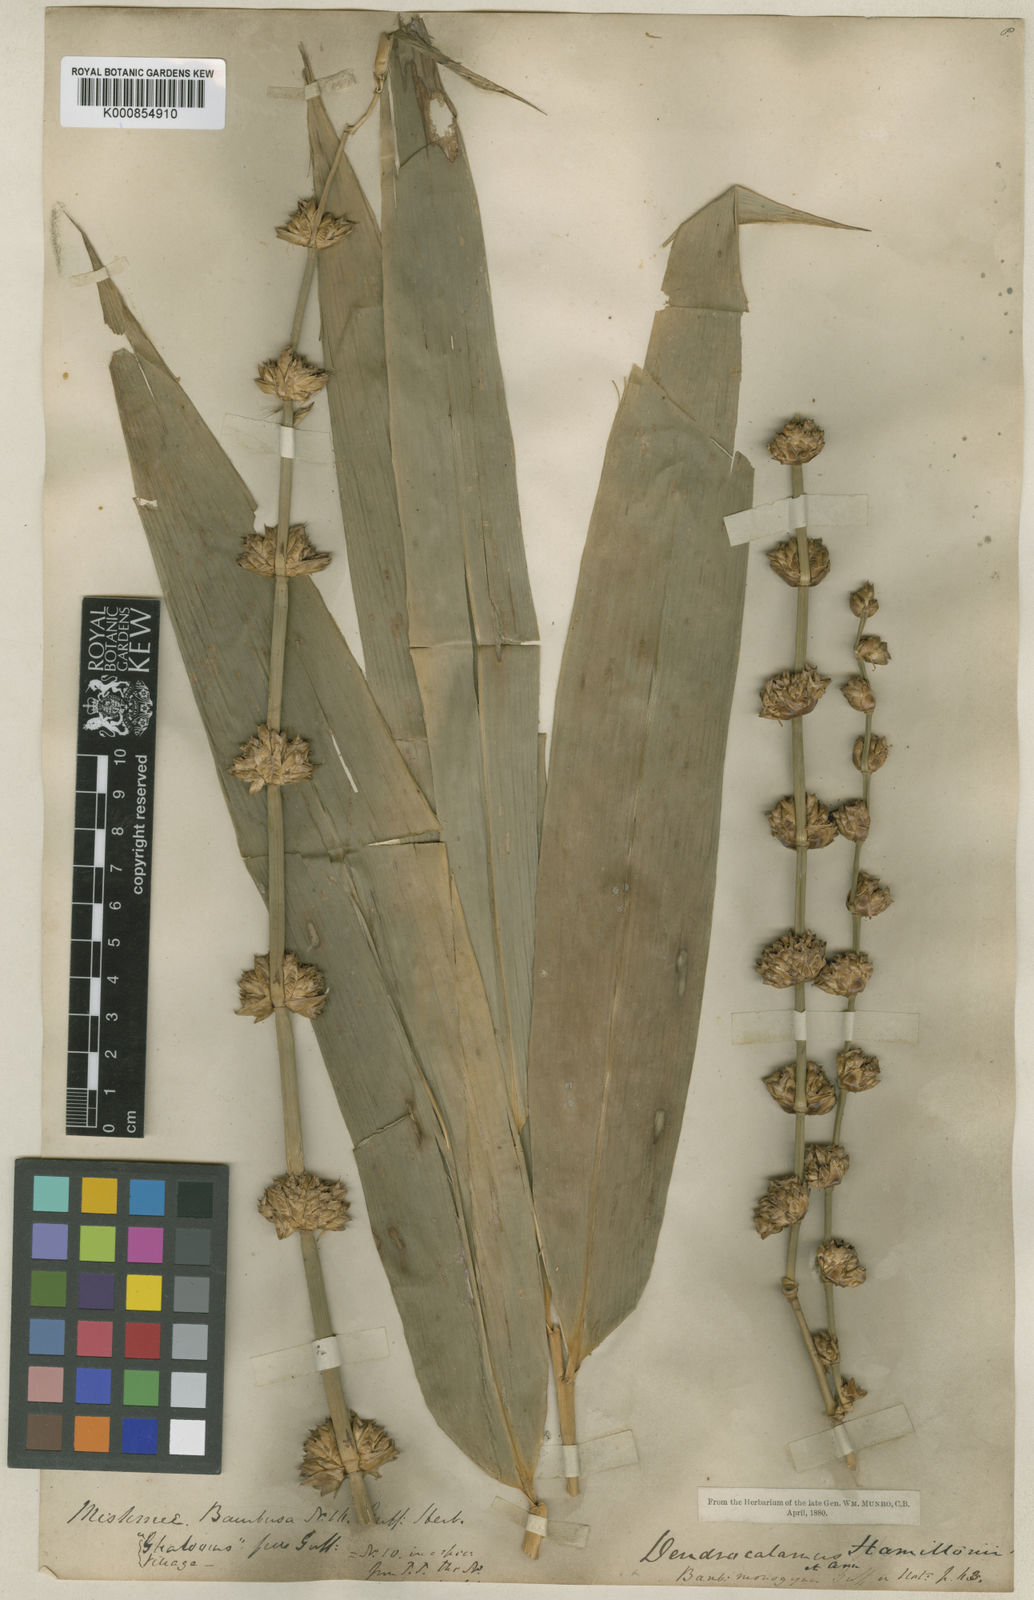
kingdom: Plantae
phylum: Tracheophyta
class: Liliopsida
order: Poales
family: Poaceae
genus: Dendrocalamus
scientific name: Dendrocalamus hamiltonii
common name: Tama bamboo
